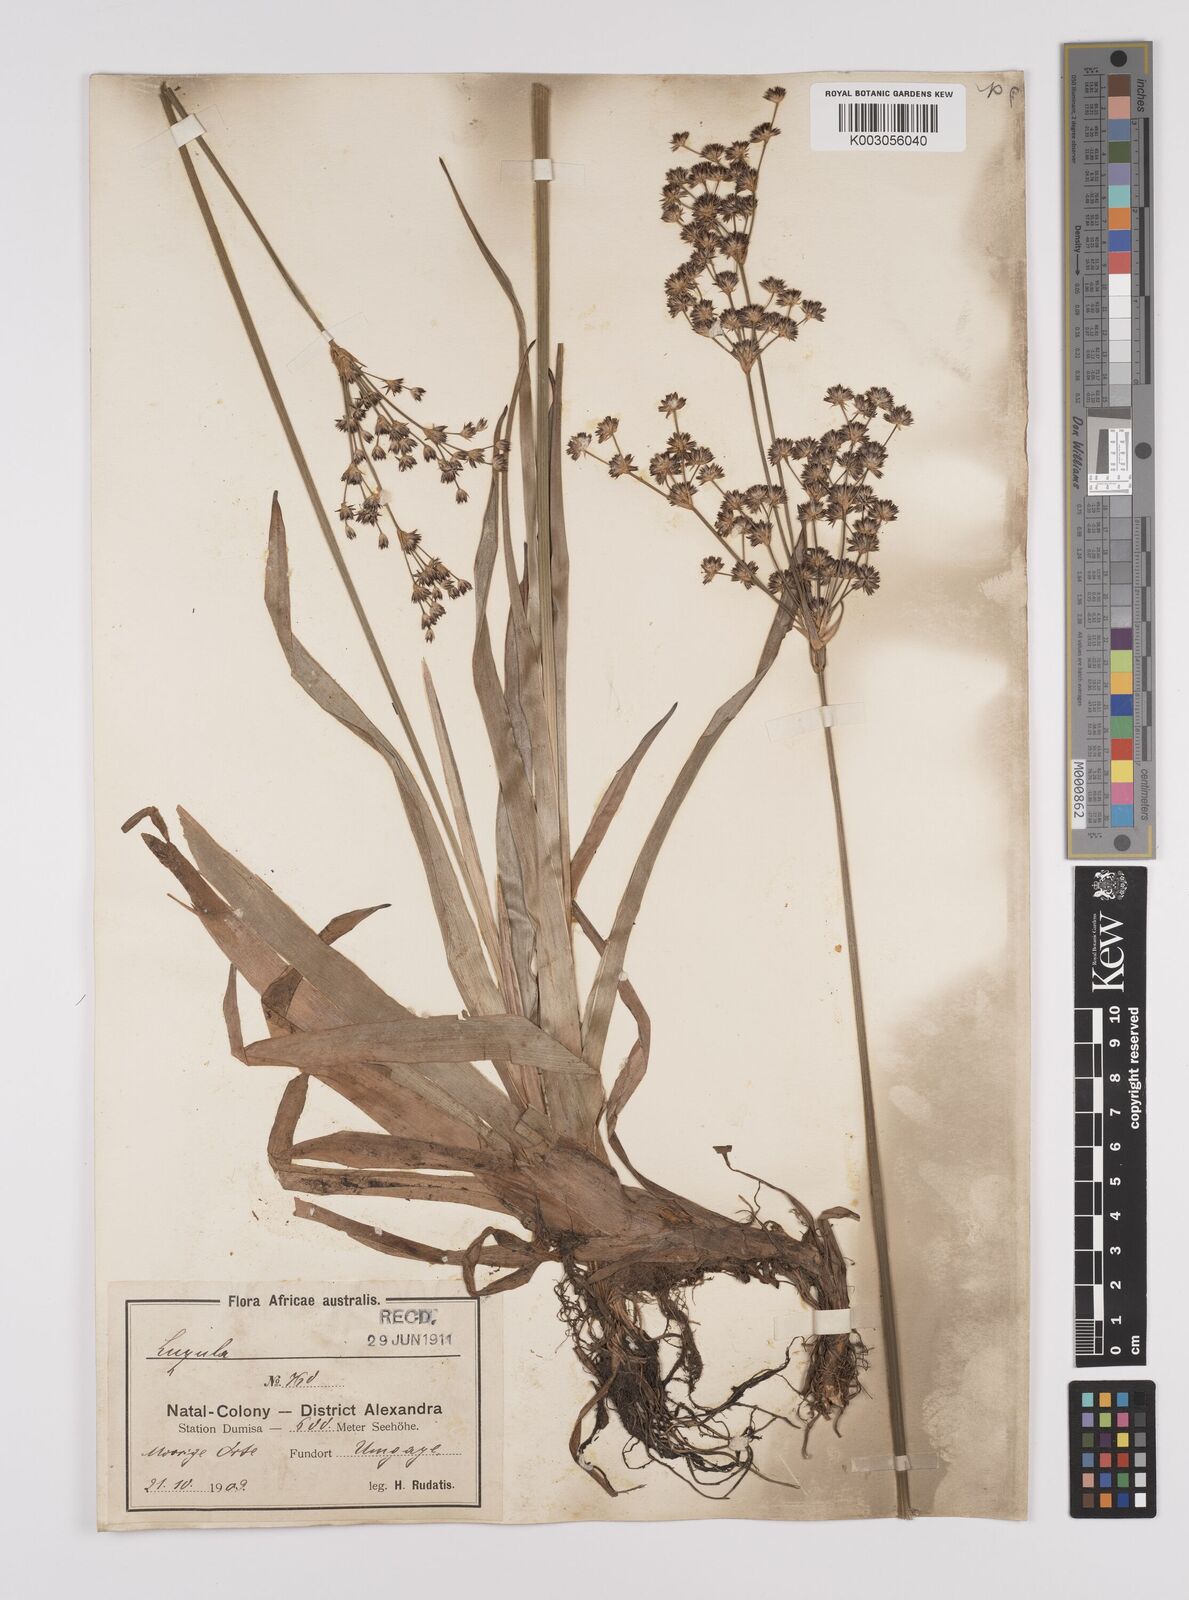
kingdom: Plantae
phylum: Tracheophyta
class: Liliopsida
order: Poales
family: Juncaceae
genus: Juncus
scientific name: Juncus lomatophyllus
